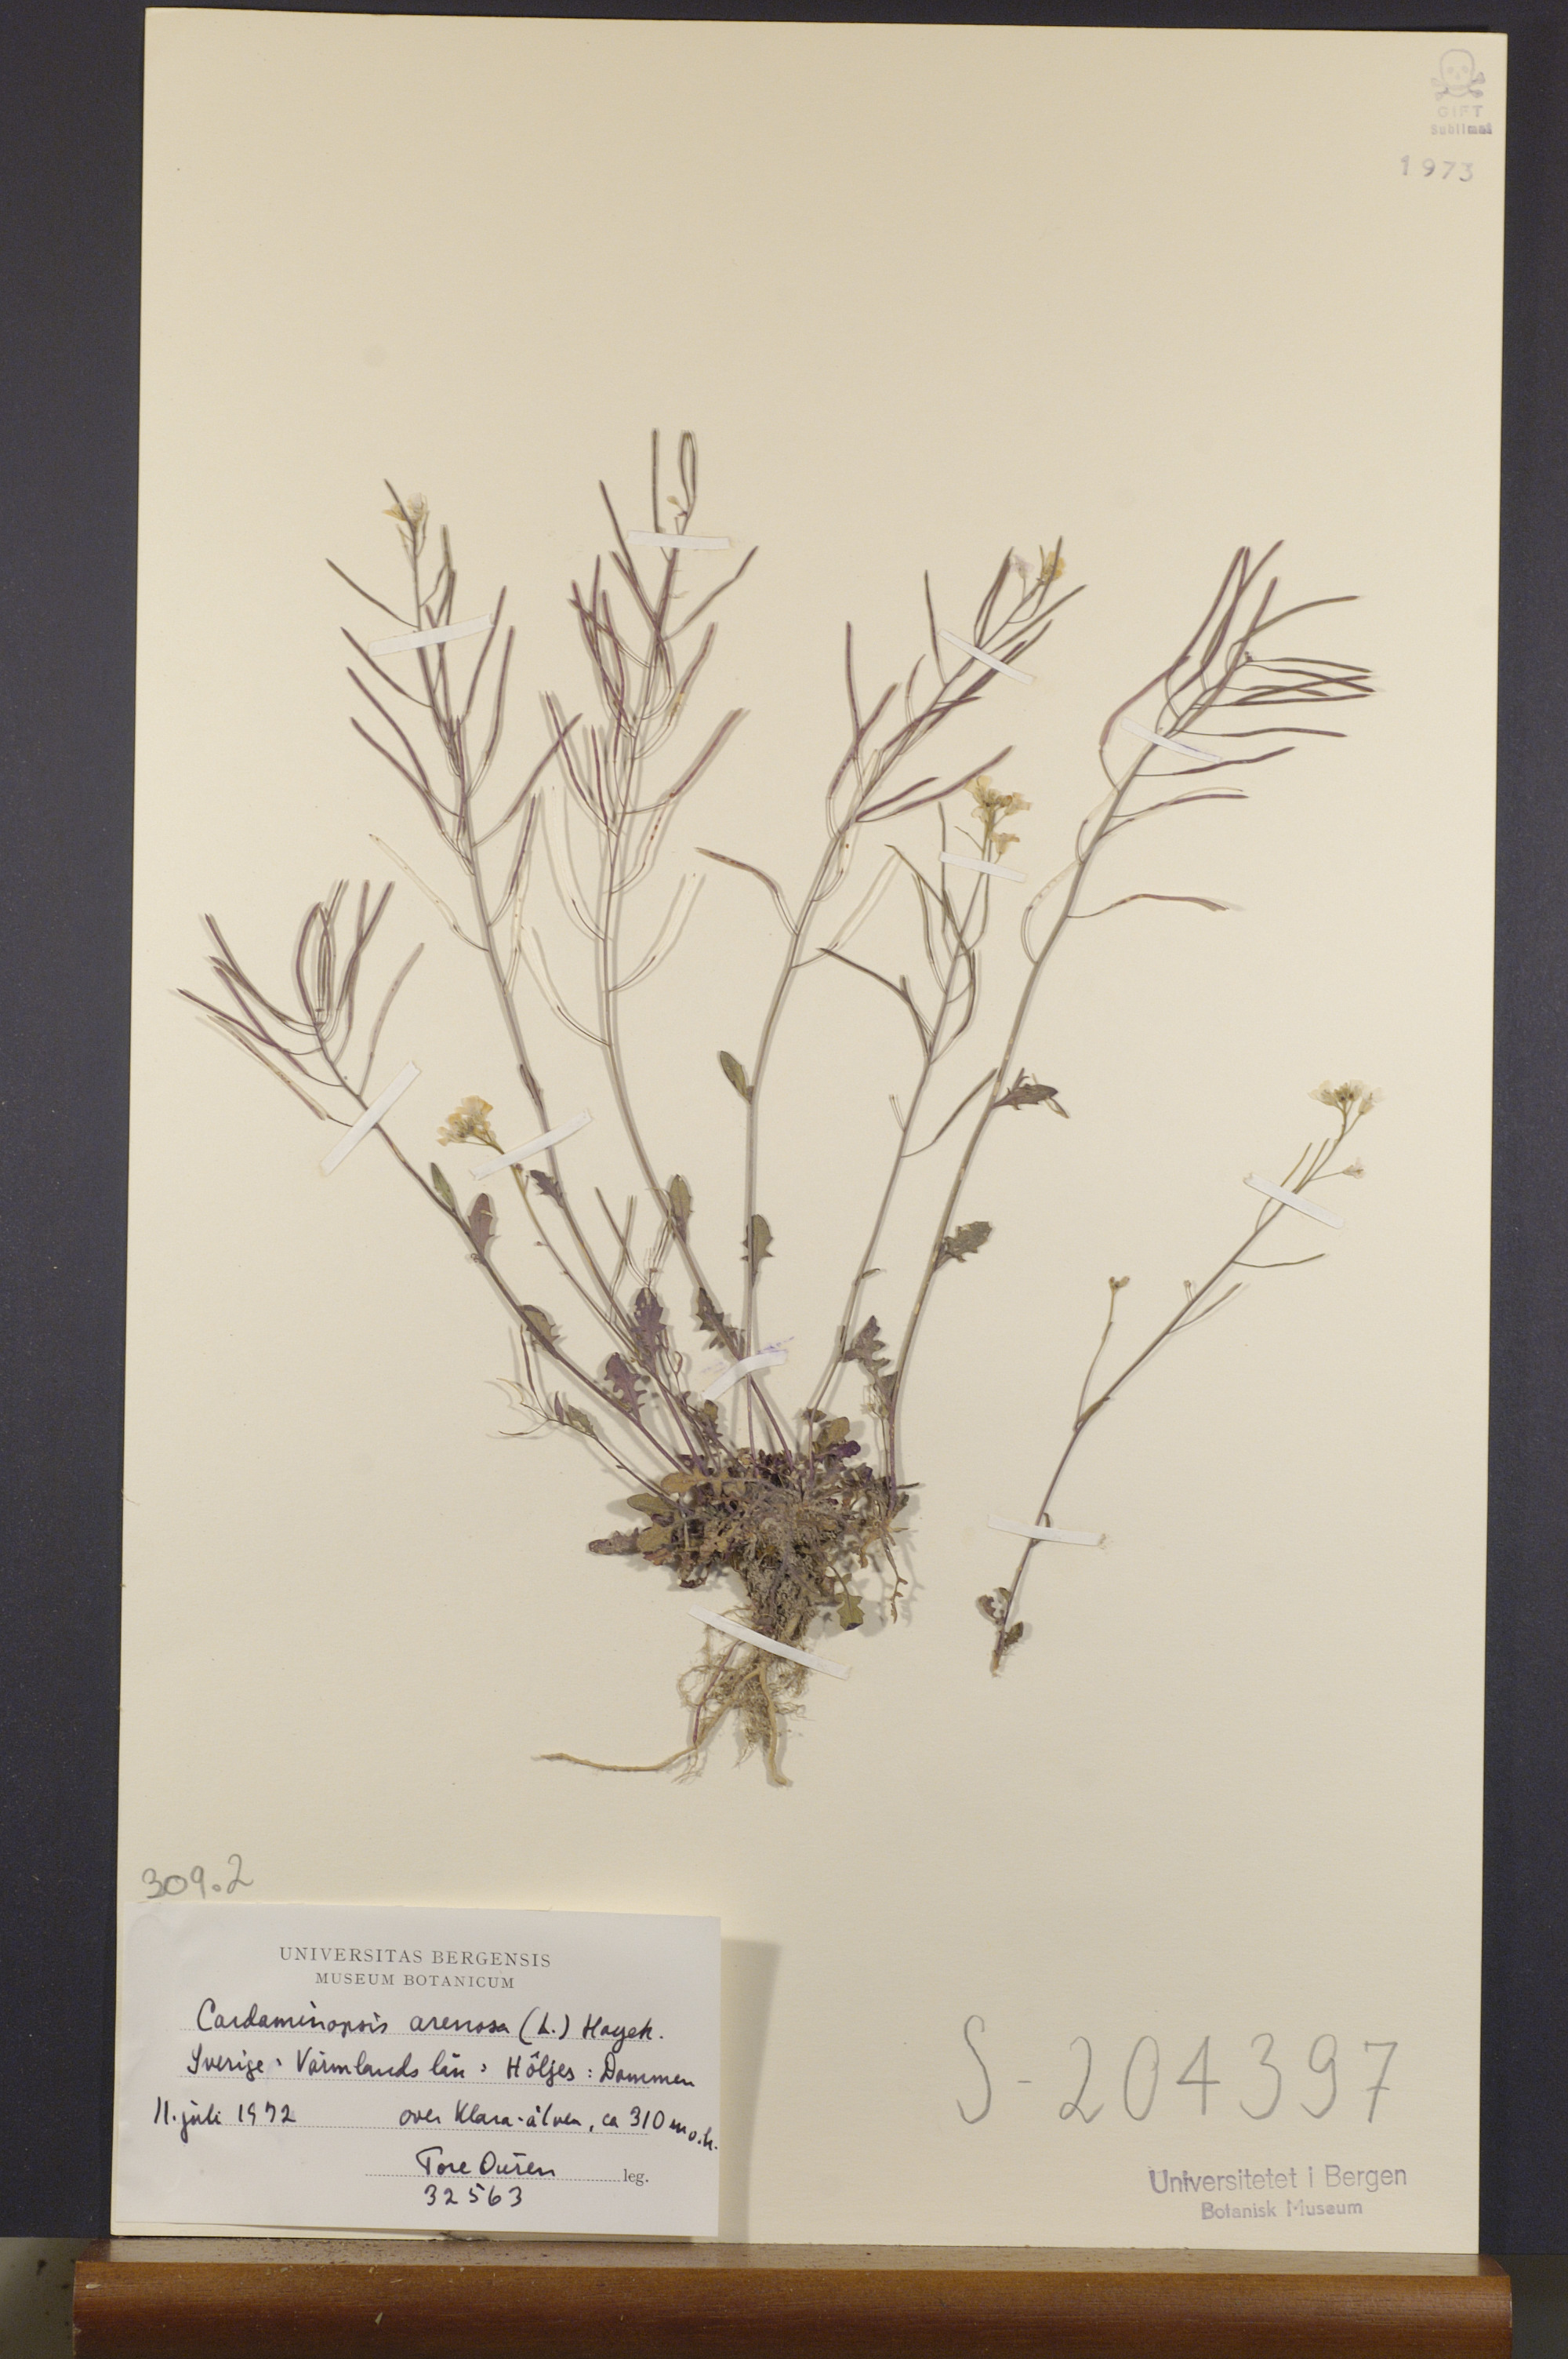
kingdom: Plantae
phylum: Tracheophyta
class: Magnoliopsida
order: Brassicales
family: Brassicaceae
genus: Arabidopsis
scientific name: Arabidopsis arenosa
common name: Sand rock-cress
